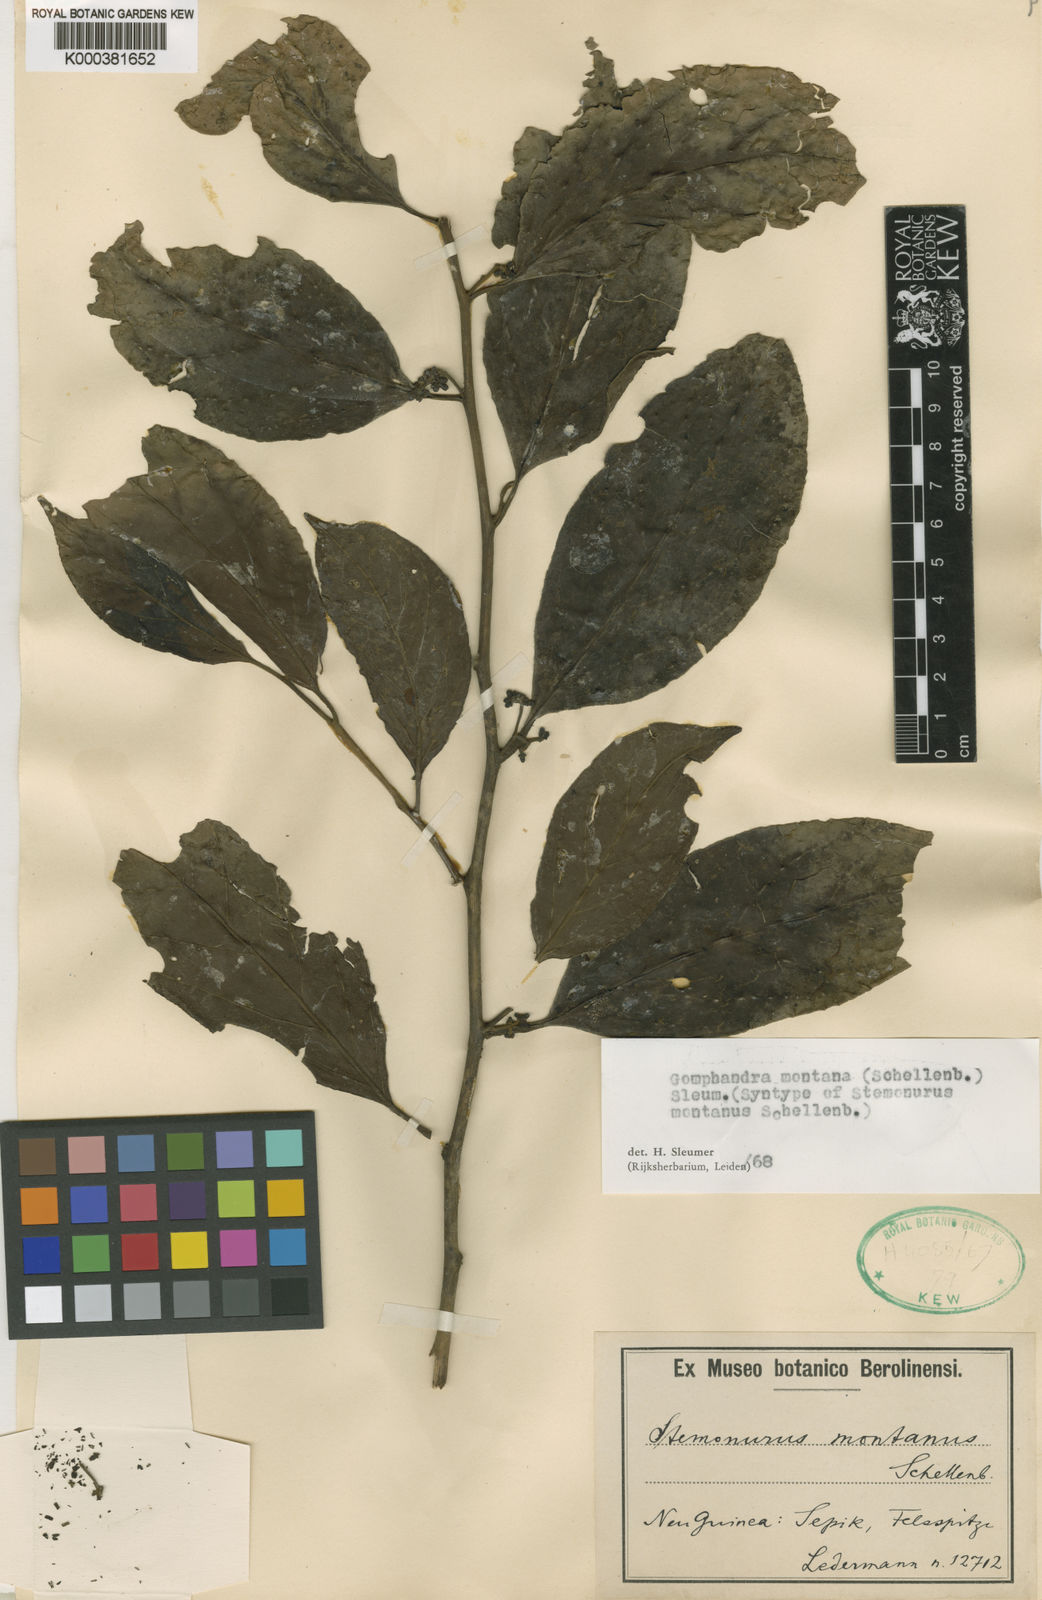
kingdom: Plantae
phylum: Tracheophyta
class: Magnoliopsida
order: Cardiopteridales
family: Stemonuraceae
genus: Gomphandra
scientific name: Gomphandra montana
